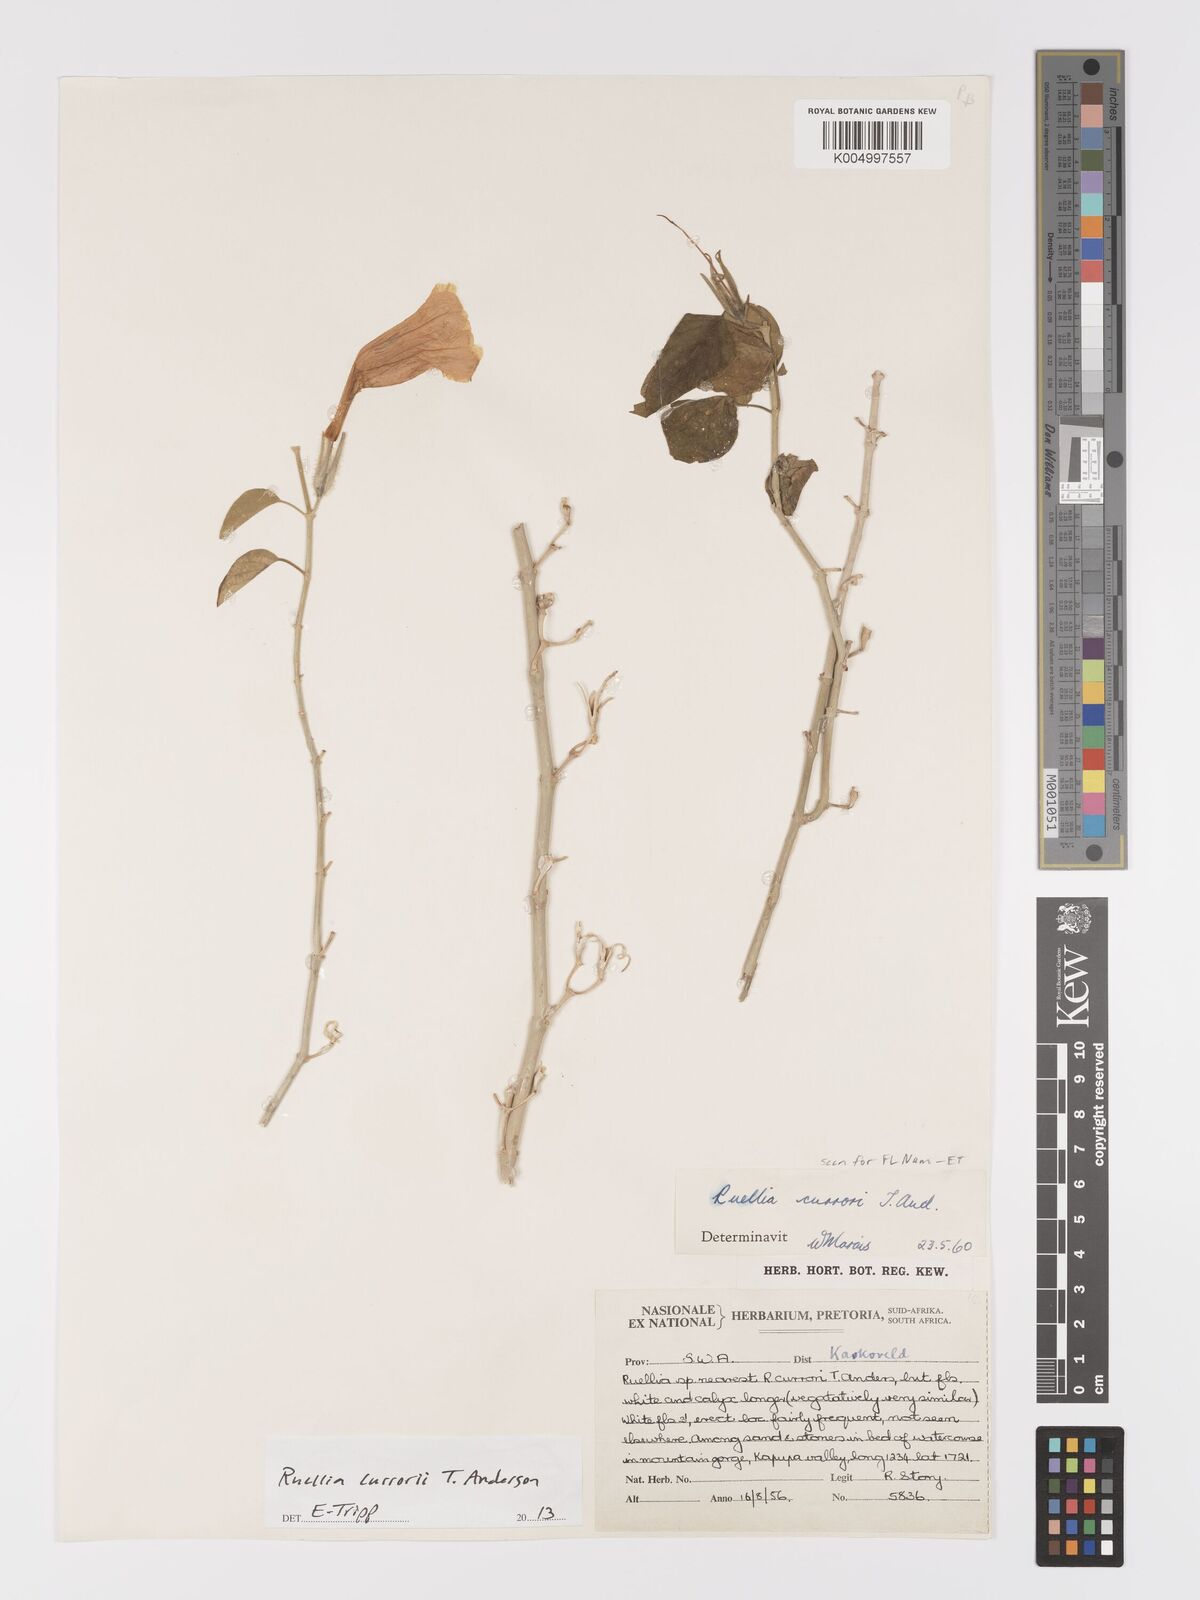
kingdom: Plantae
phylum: Tracheophyta
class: Magnoliopsida
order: Lamiales
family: Acanthaceae
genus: Ruellia
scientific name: Ruellia currorii
